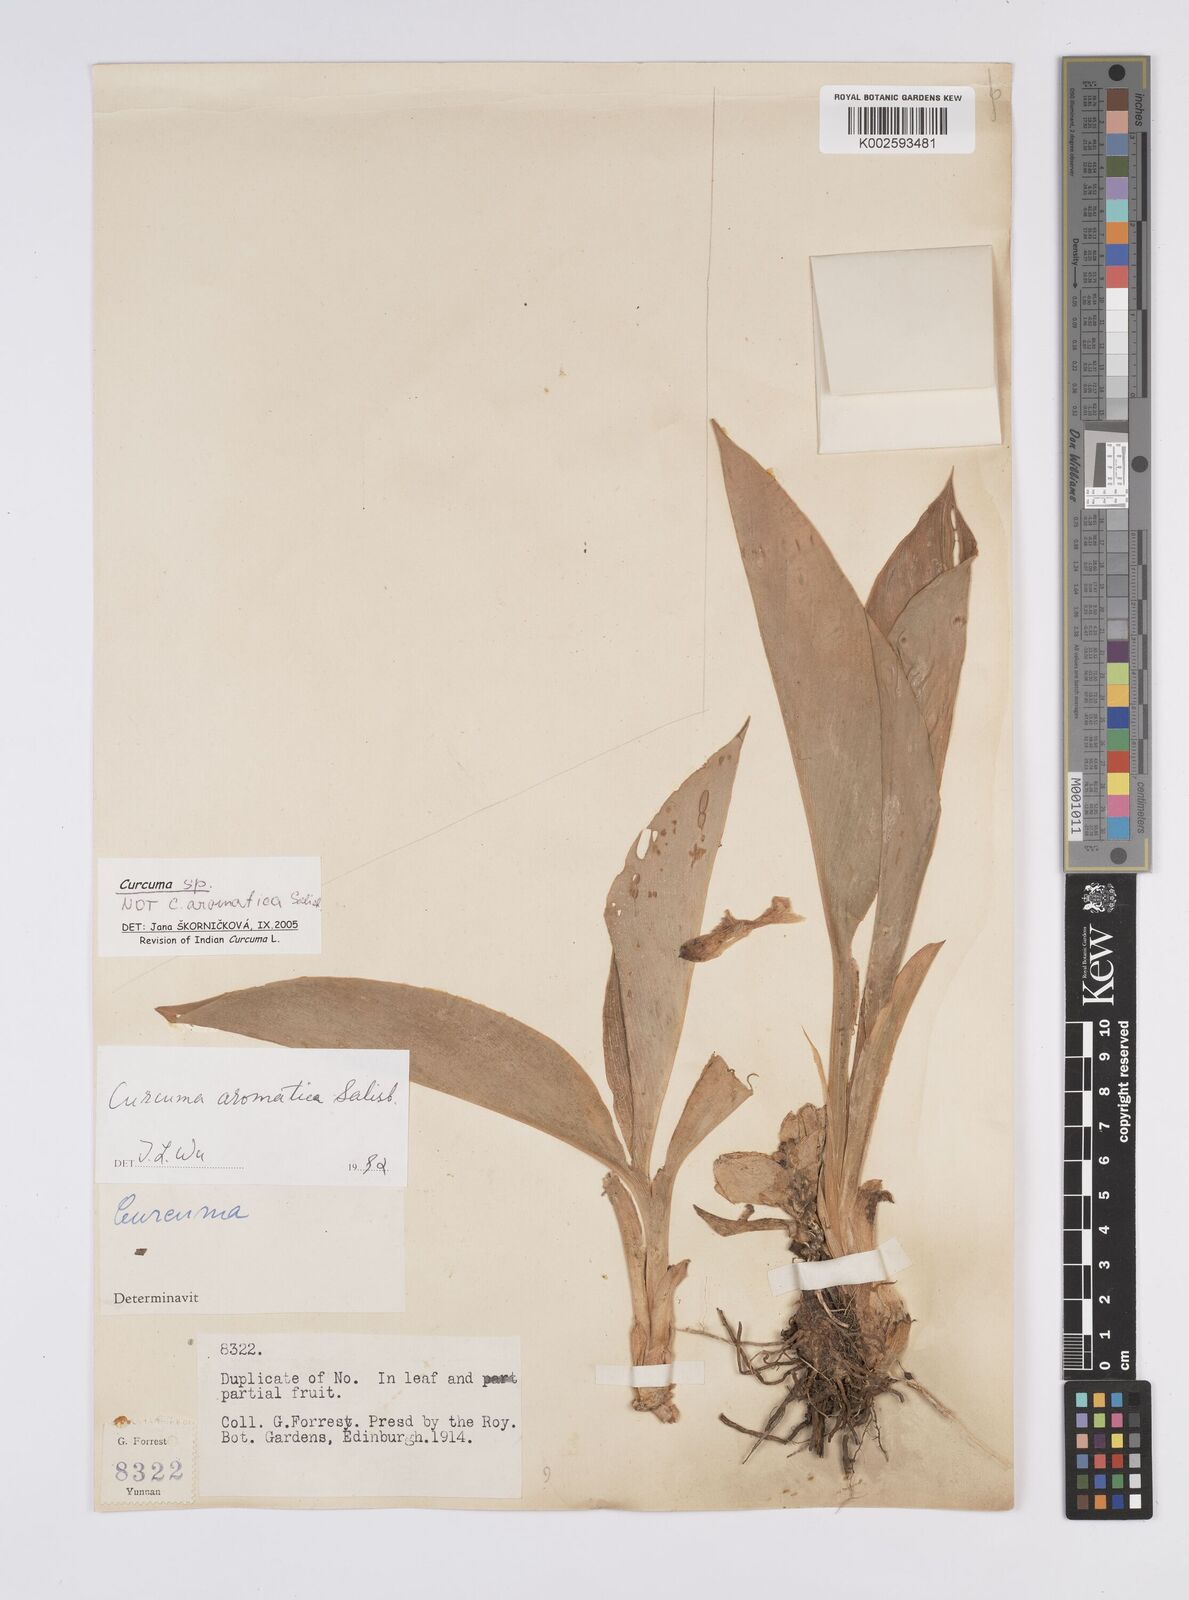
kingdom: Plantae
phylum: Tracheophyta
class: Liliopsida
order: Zingiberales
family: Zingiberaceae
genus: Curcuma
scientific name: Curcuma
